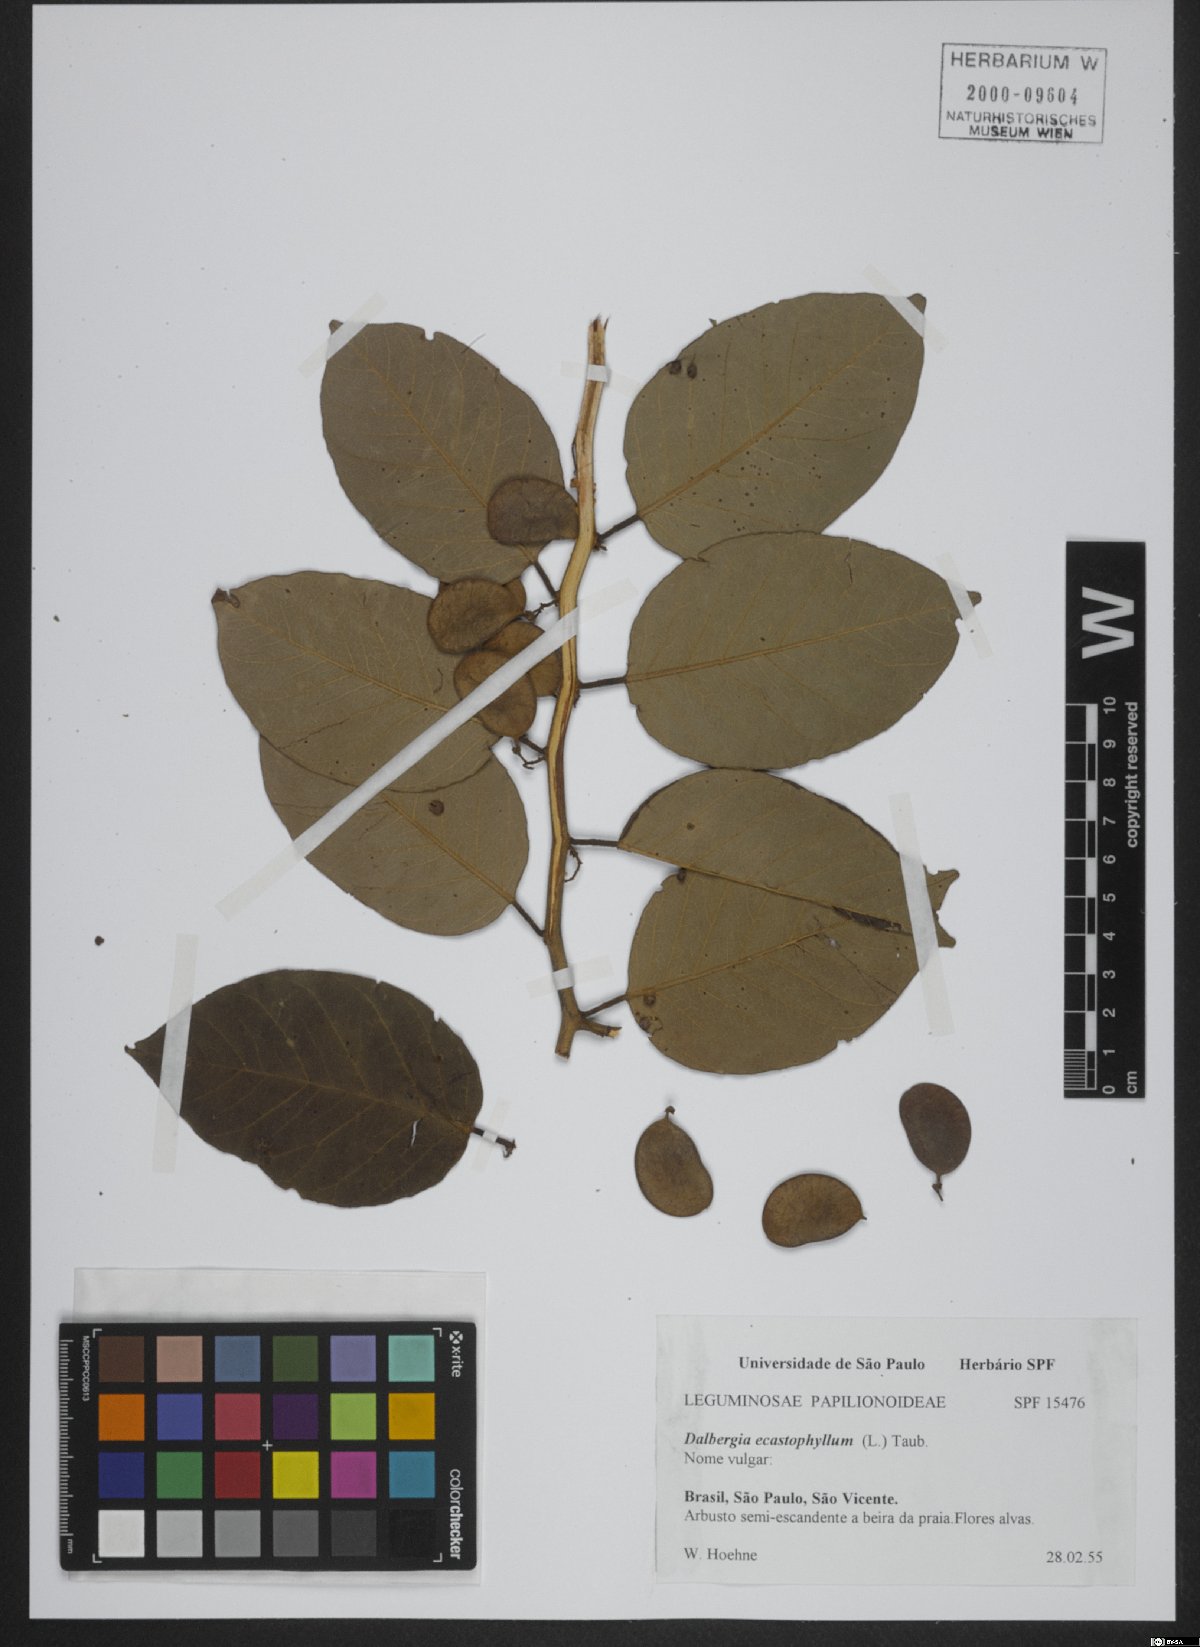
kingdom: Plantae
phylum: Tracheophyta
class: Magnoliopsida
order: Fabales
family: Fabaceae
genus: Dalbergia
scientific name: Dalbergia ecastaphyllum
